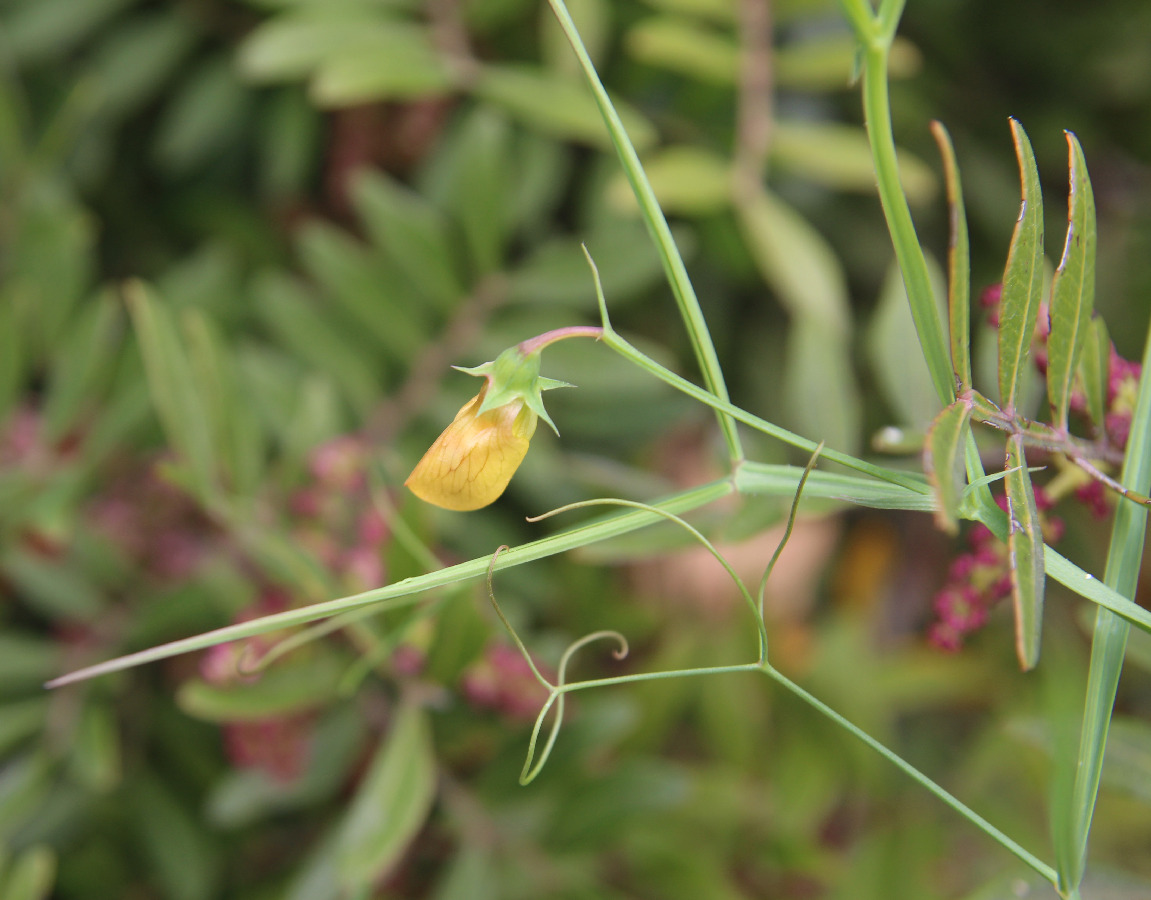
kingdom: Plantae
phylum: Tracheophyta
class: Magnoliopsida
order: Fabales
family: Fabaceae
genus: Lathyrus
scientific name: Lathyrus annuus
